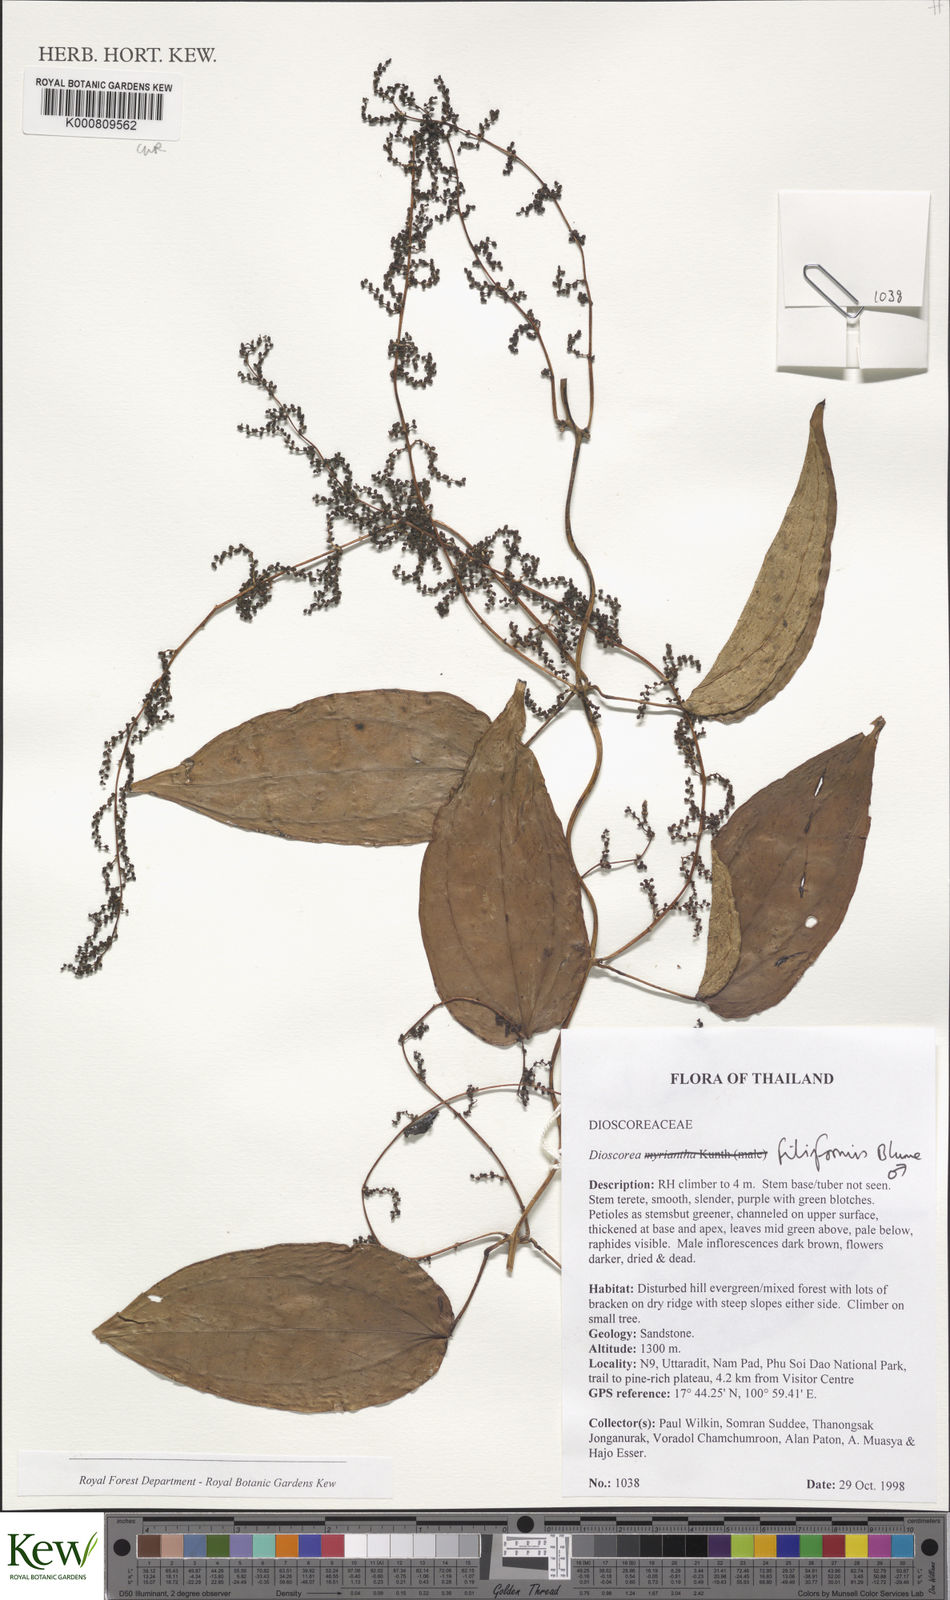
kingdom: Plantae
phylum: Tracheophyta
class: Liliopsida
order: Dioscoreales
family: Dioscoreaceae
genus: Dioscorea
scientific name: Dioscorea filiformis
